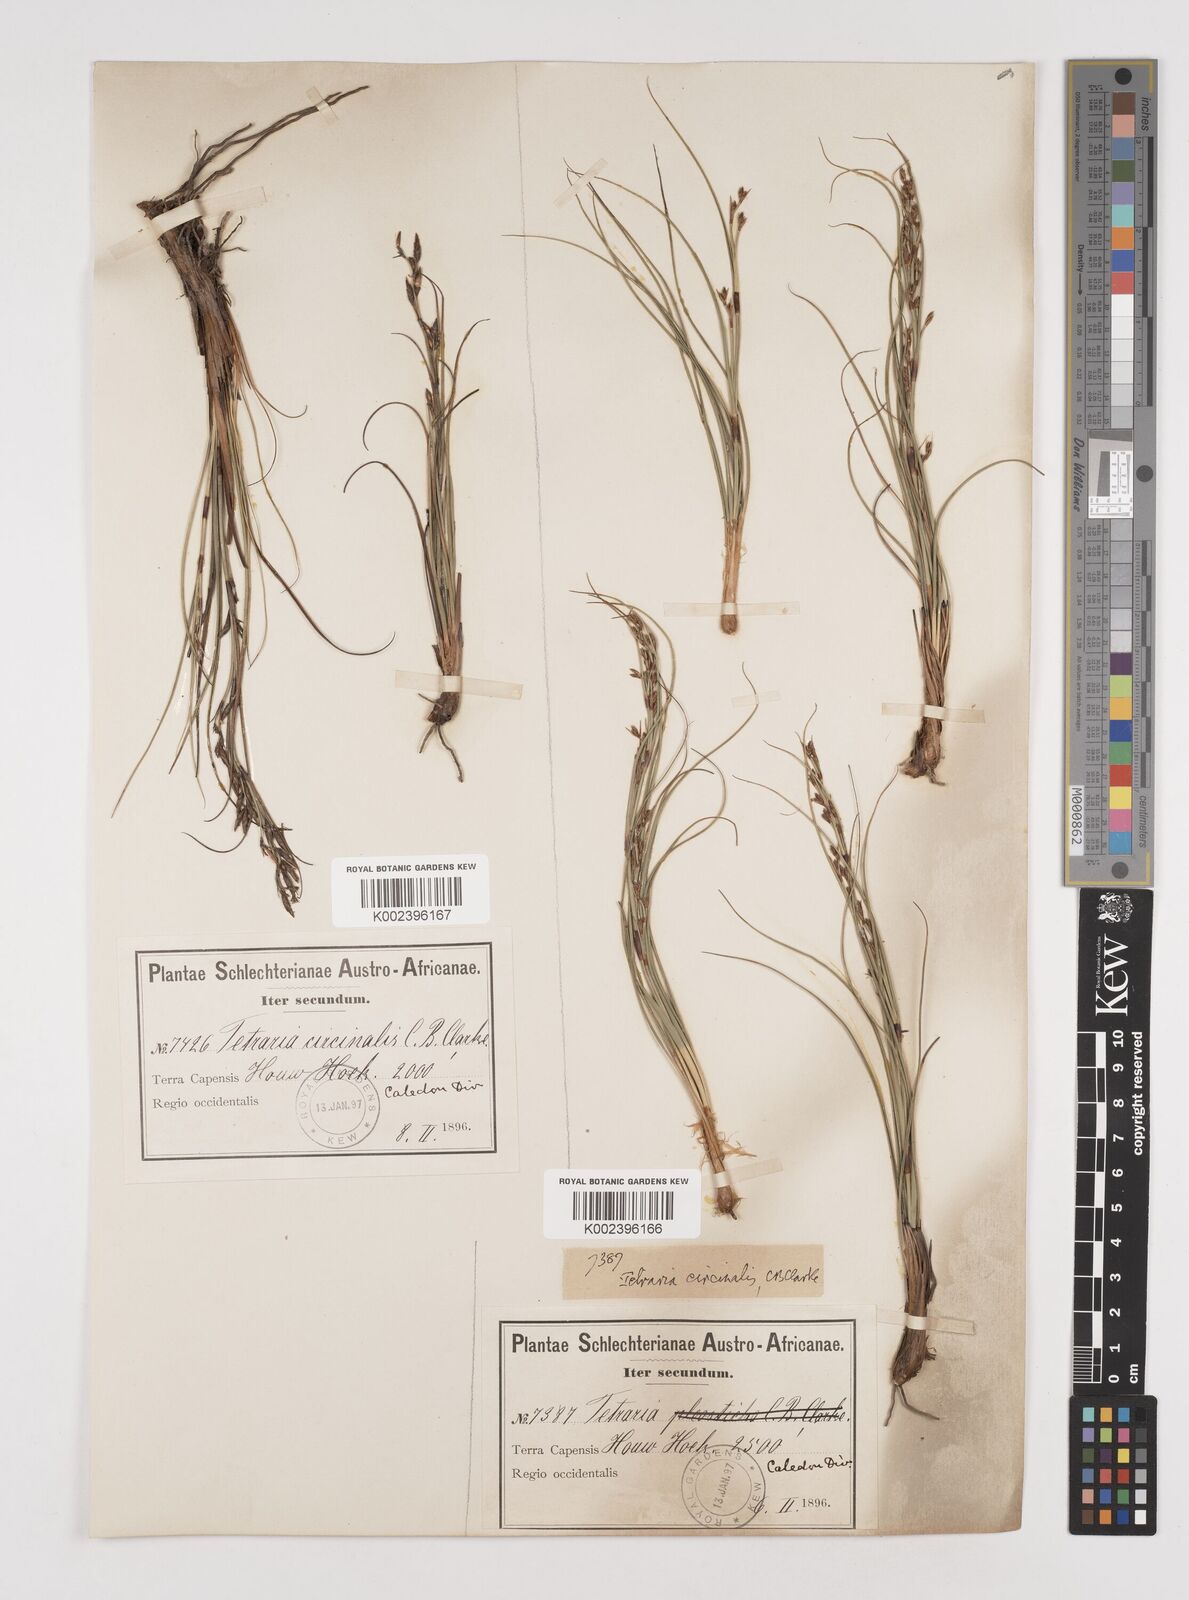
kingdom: Plantae
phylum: Tracheophyta
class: Liliopsida
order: Poales
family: Cyperaceae
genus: Tetraria
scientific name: Tetraria microstachys
